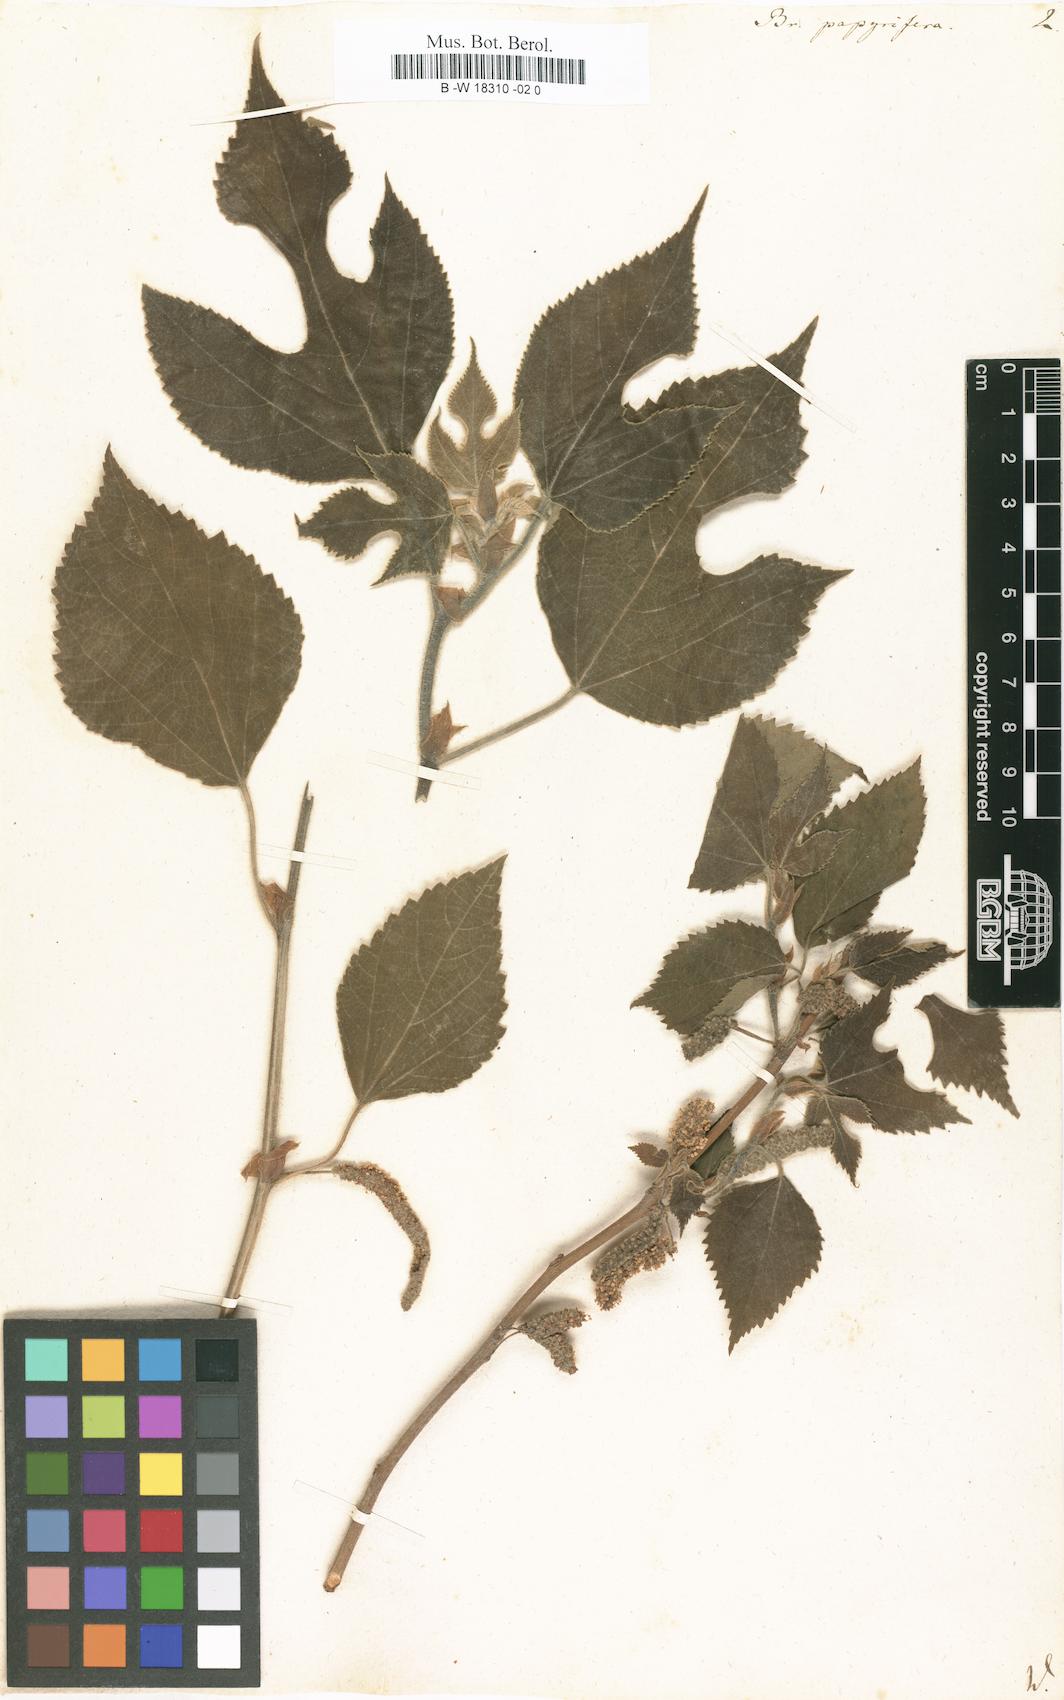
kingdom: Plantae
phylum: Tracheophyta
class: Magnoliopsida
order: Rosales
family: Moraceae
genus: Broussonetia
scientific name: Broussonetia papyrifera
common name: Paper mulberry
